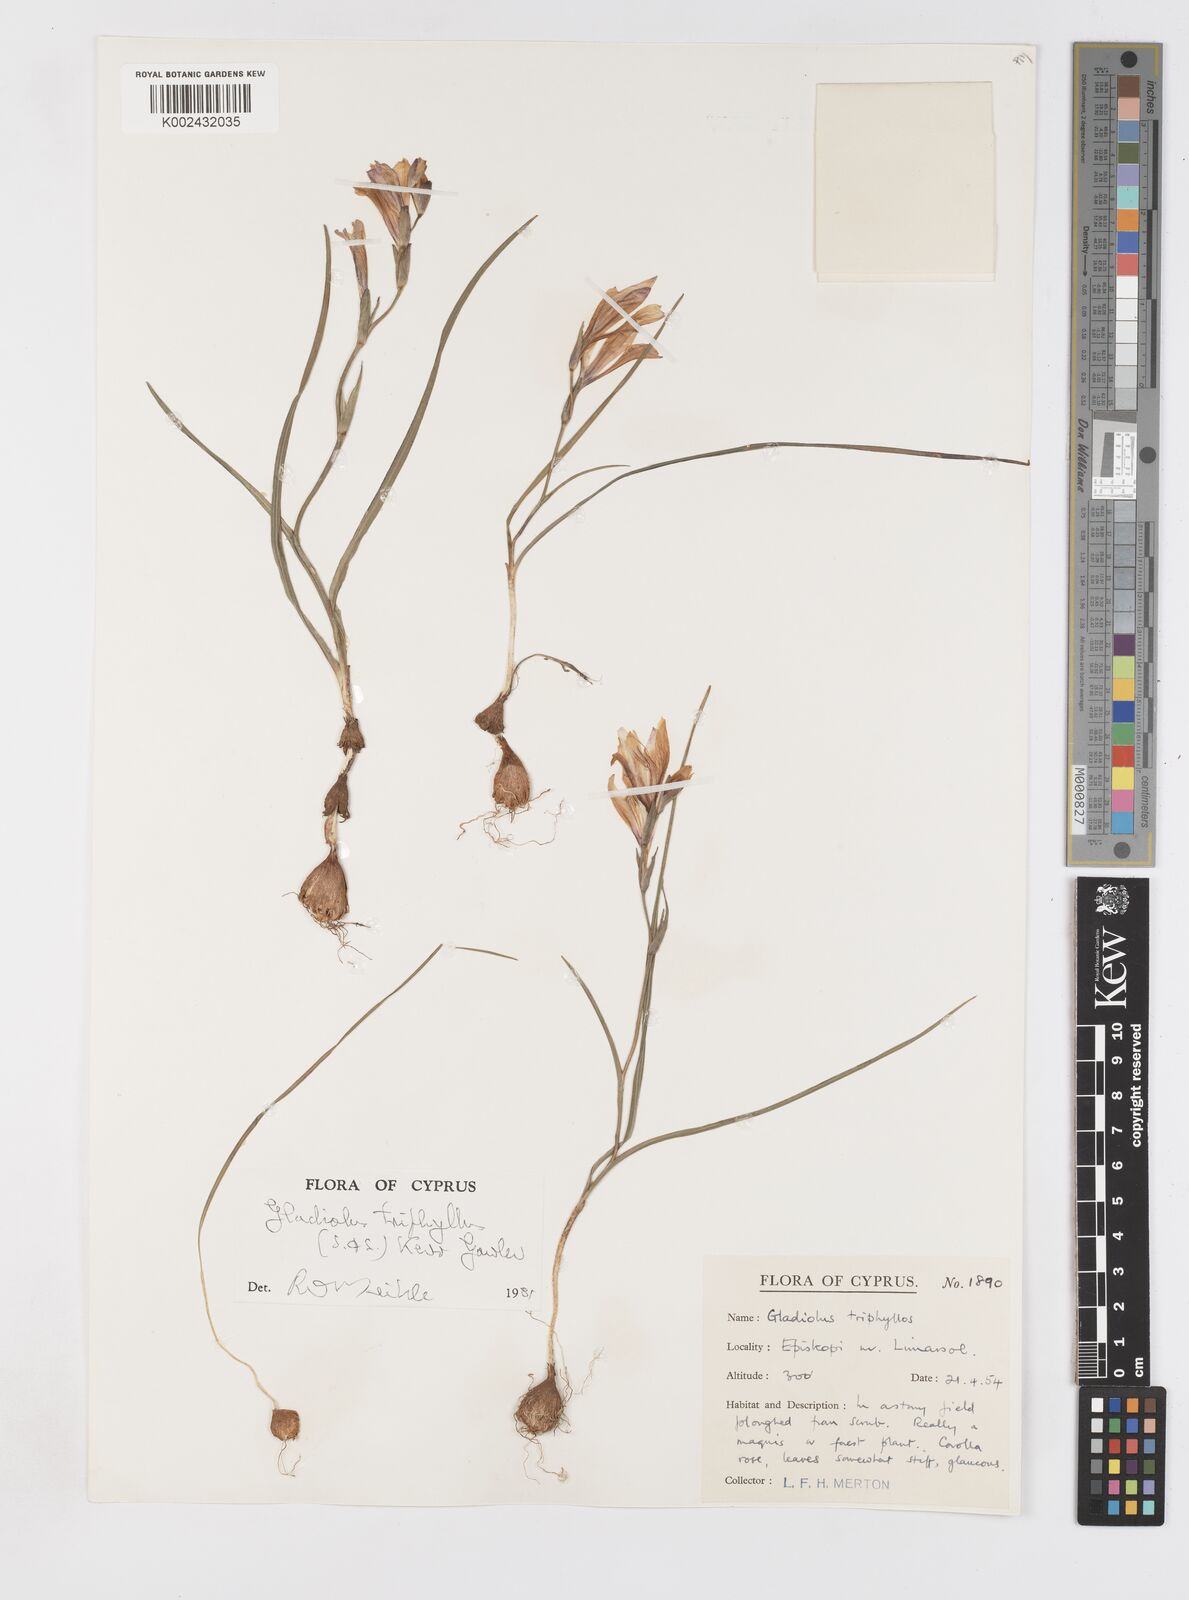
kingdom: Plantae
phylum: Tracheophyta
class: Liliopsida
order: Asparagales
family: Iridaceae
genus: Gladiolus
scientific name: Gladiolus triphyllus
